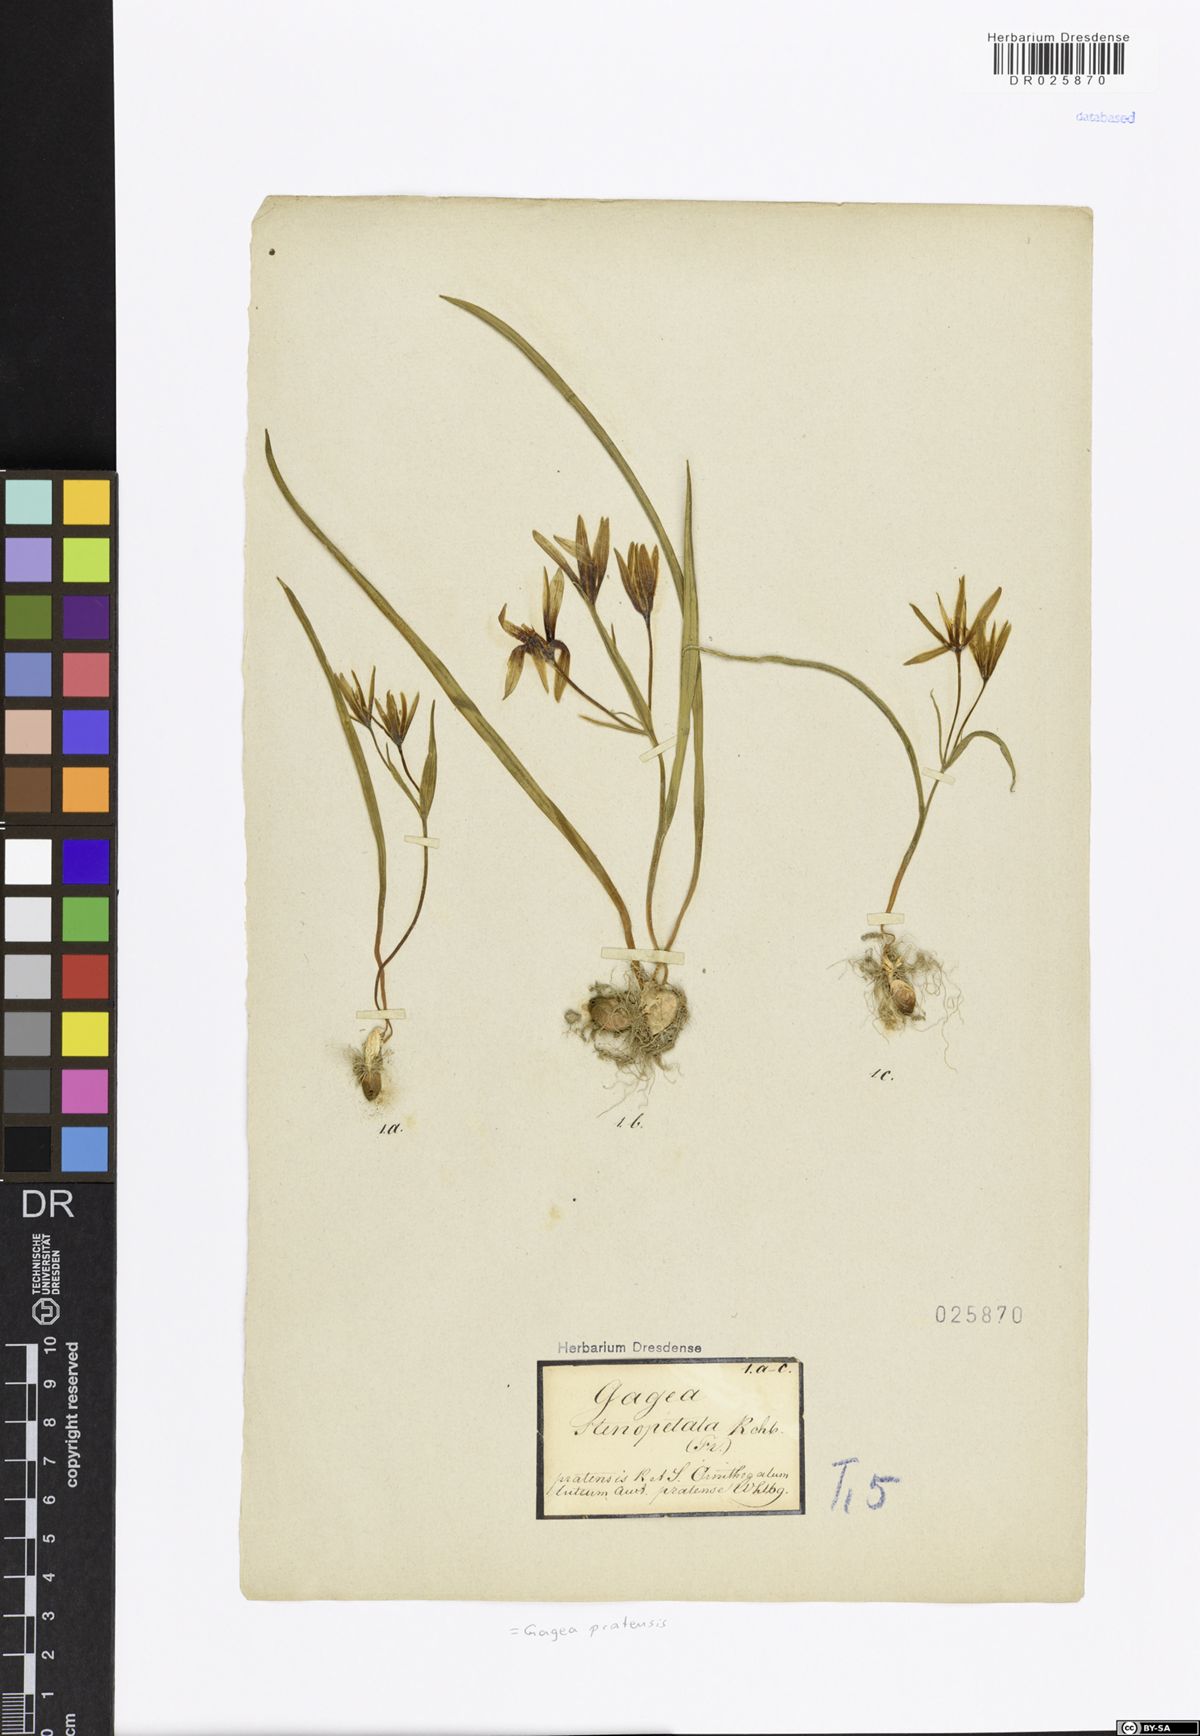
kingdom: Plantae
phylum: Tracheophyta
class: Liliopsida
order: Liliales
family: Liliaceae
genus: Gagea
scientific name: Gagea pratensis
